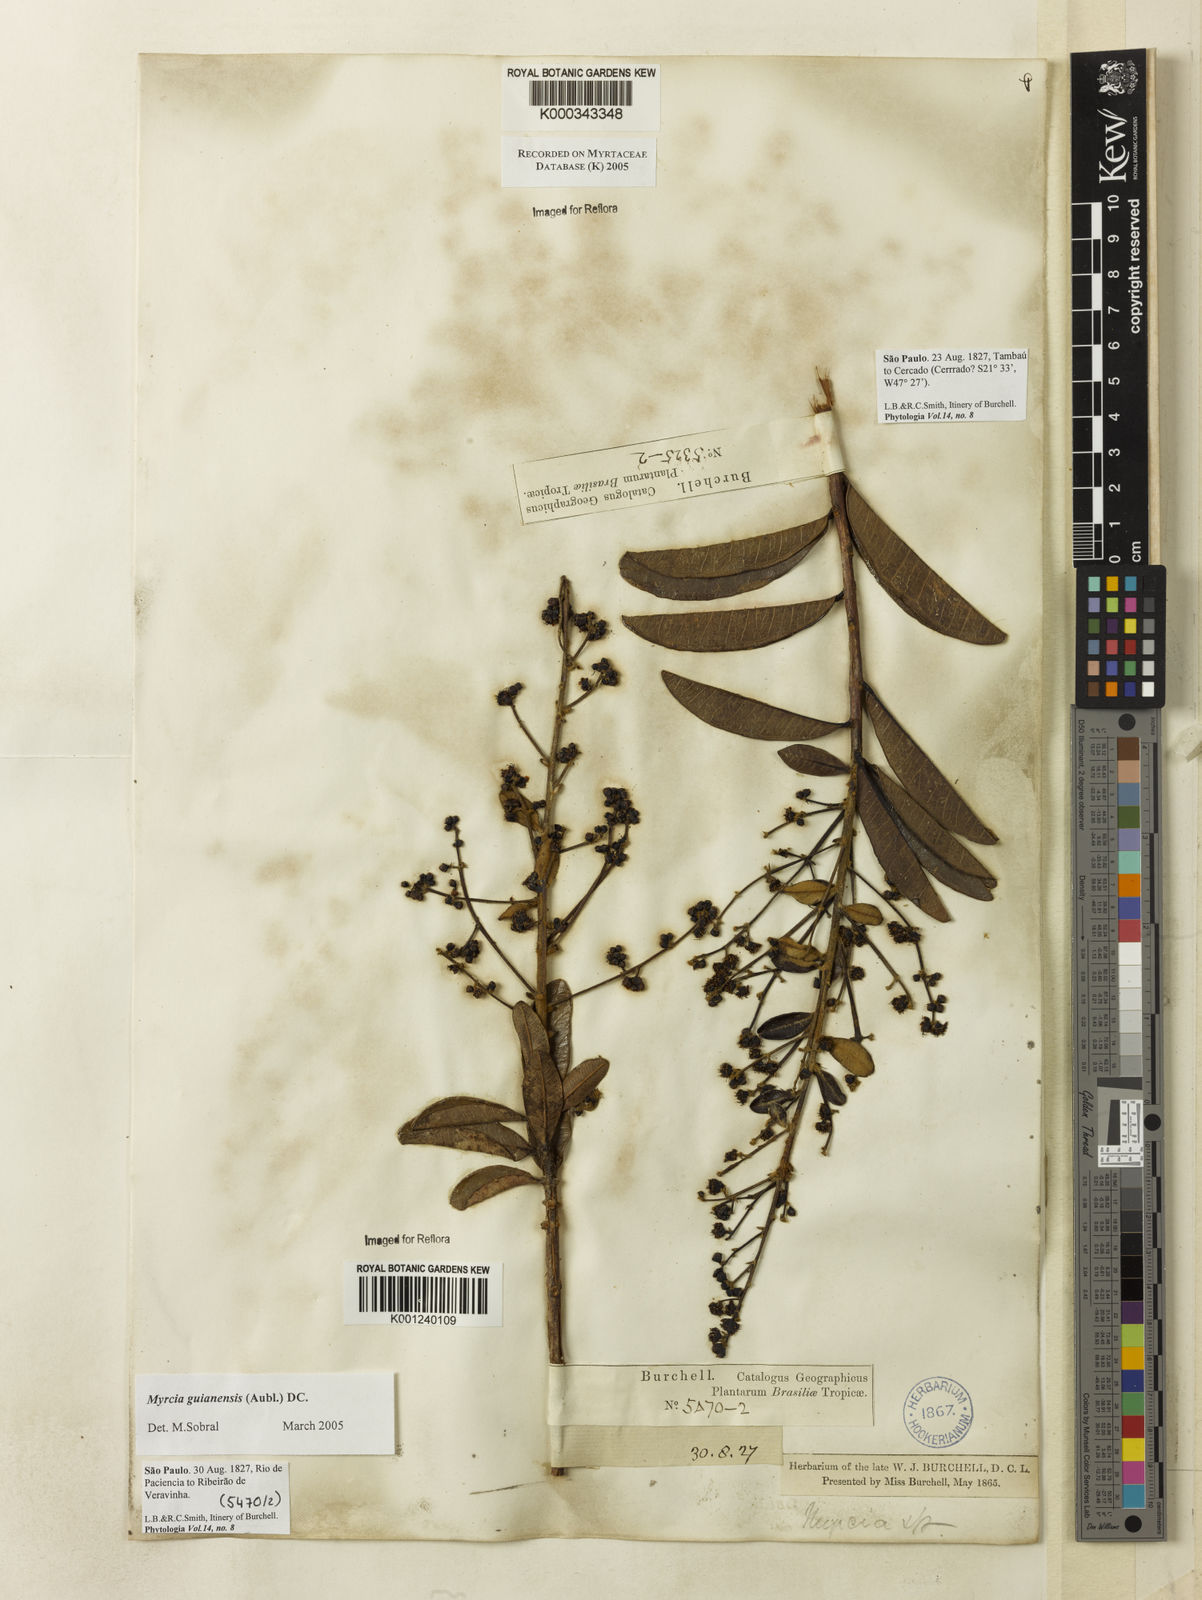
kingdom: Plantae
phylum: Tracheophyta
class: Magnoliopsida
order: Myrtales
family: Myrtaceae
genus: Myrcia
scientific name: Myrcia subverticillaris
